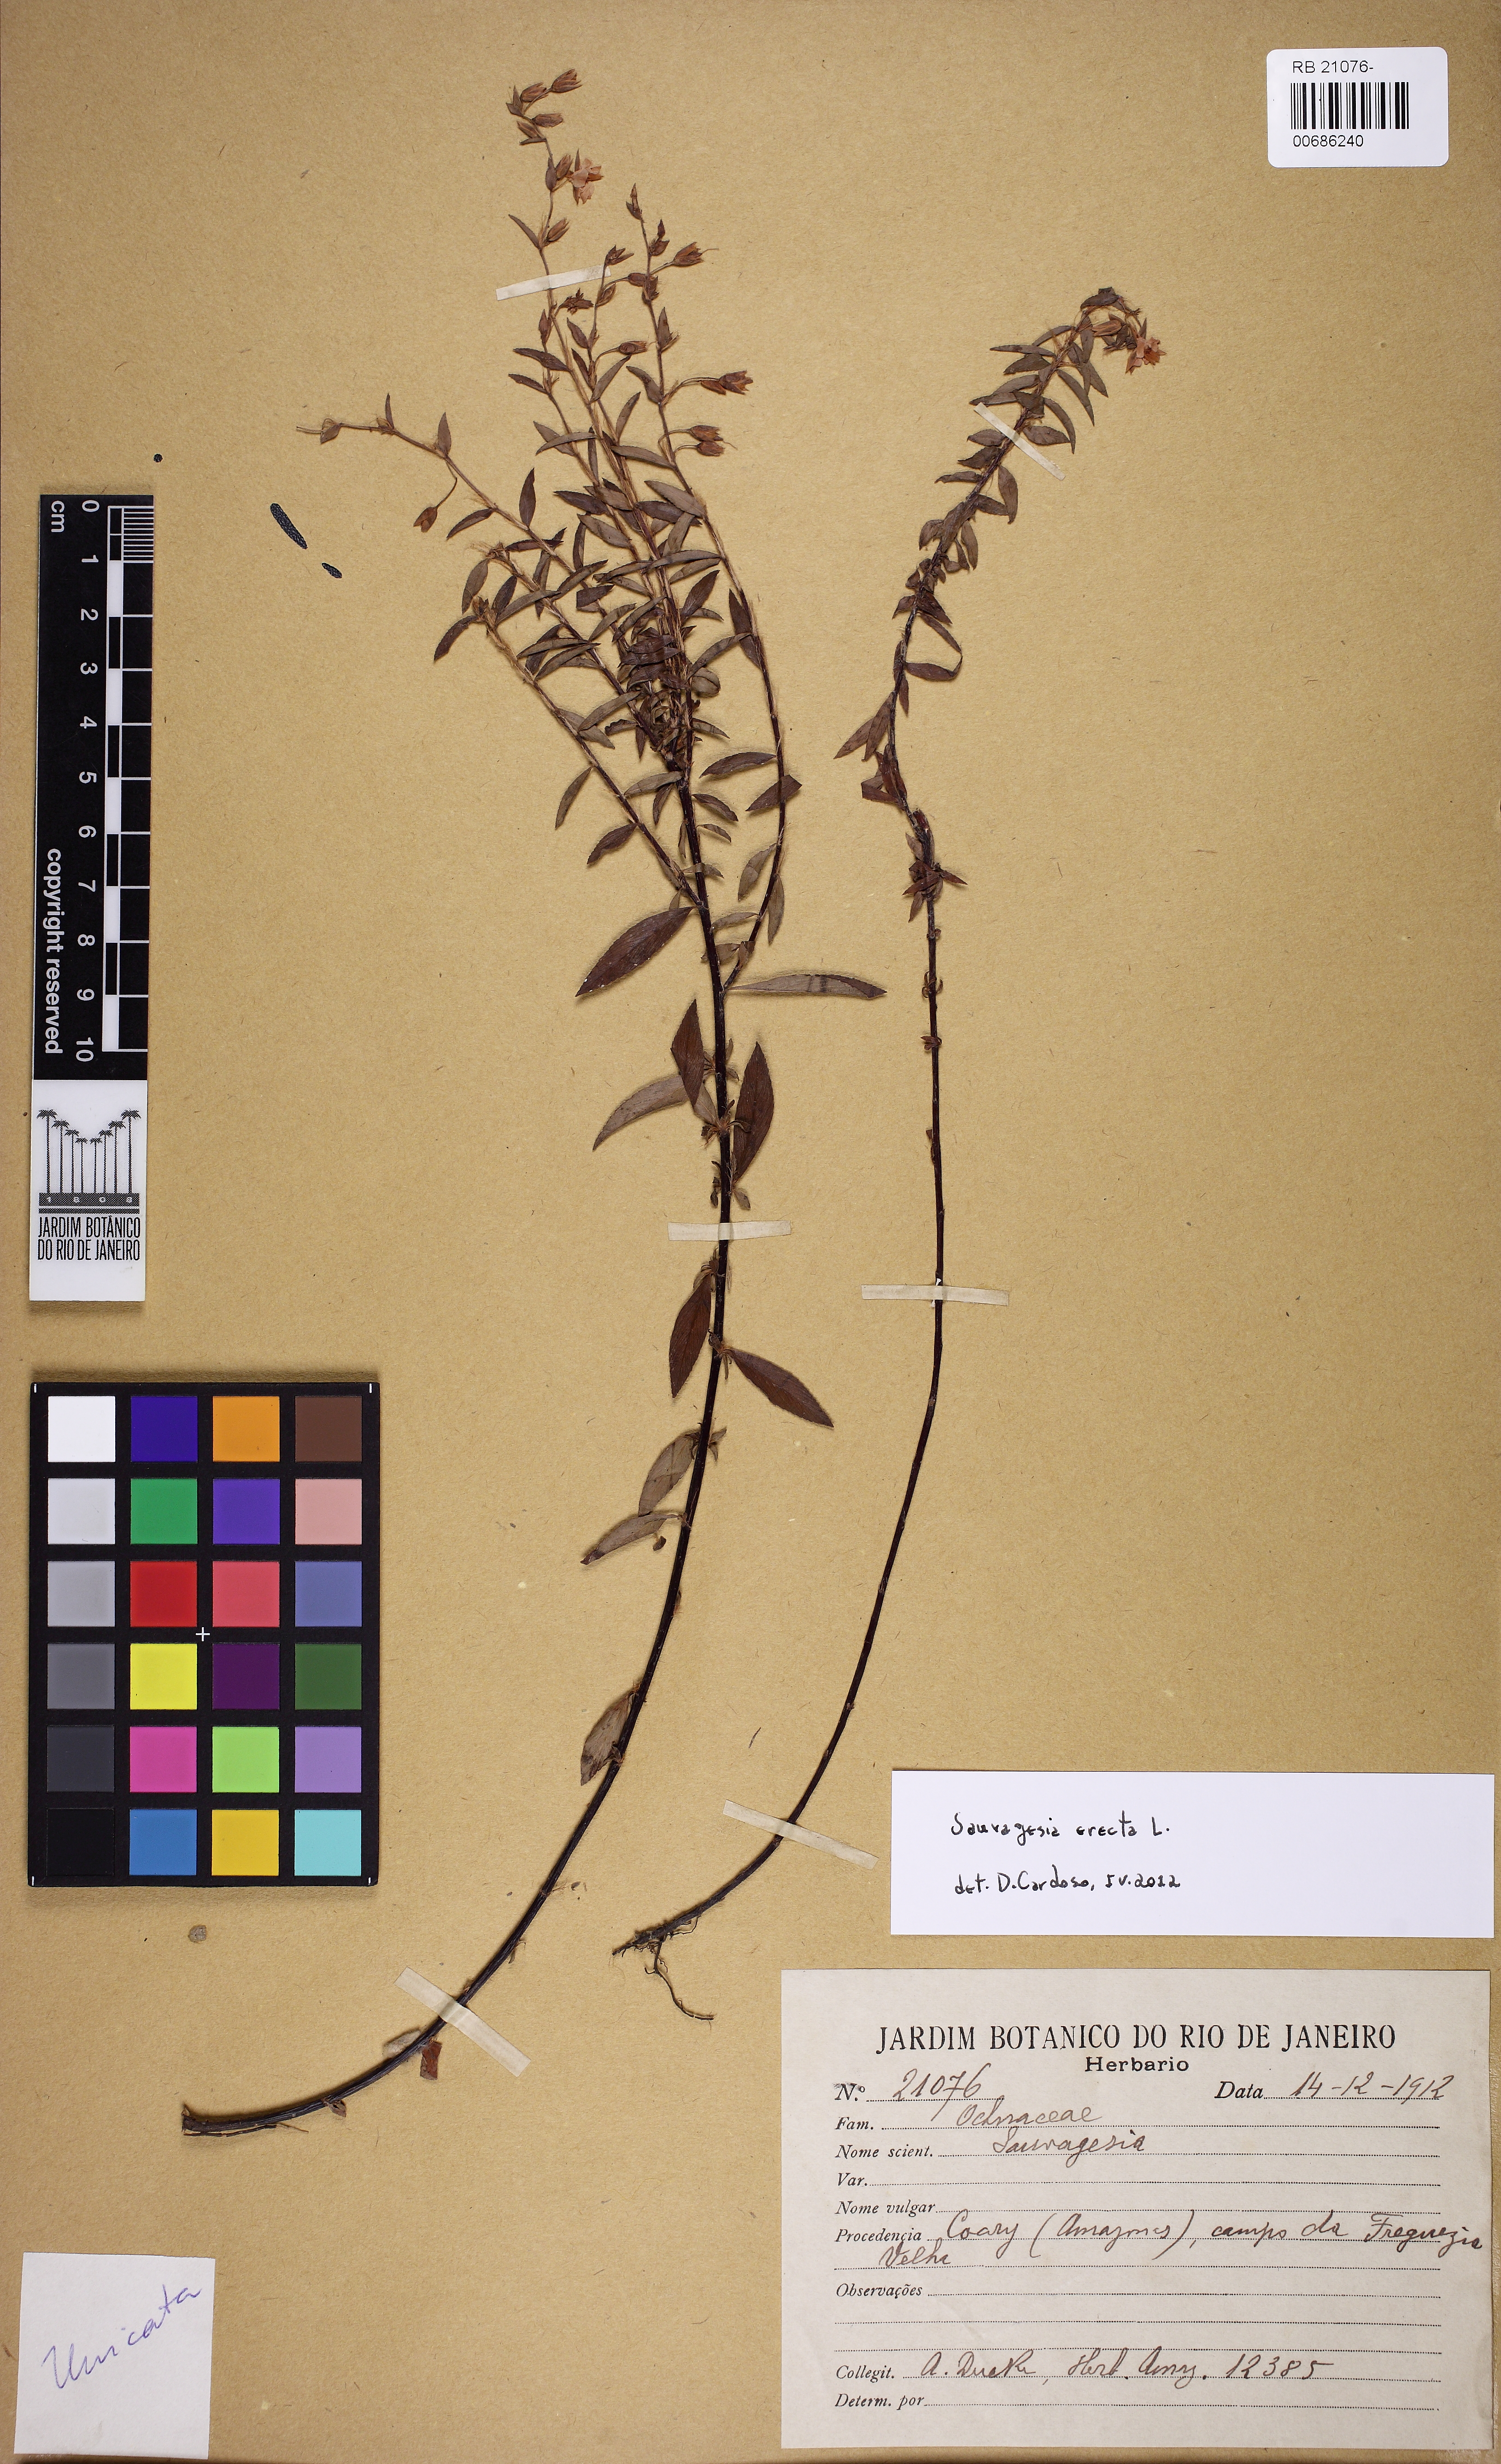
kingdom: Plantae
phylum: Tracheophyta
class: Magnoliopsida
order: Malpighiales
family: Ochnaceae
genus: Sauvagesia
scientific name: Sauvagesia erecta
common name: Creole tea
